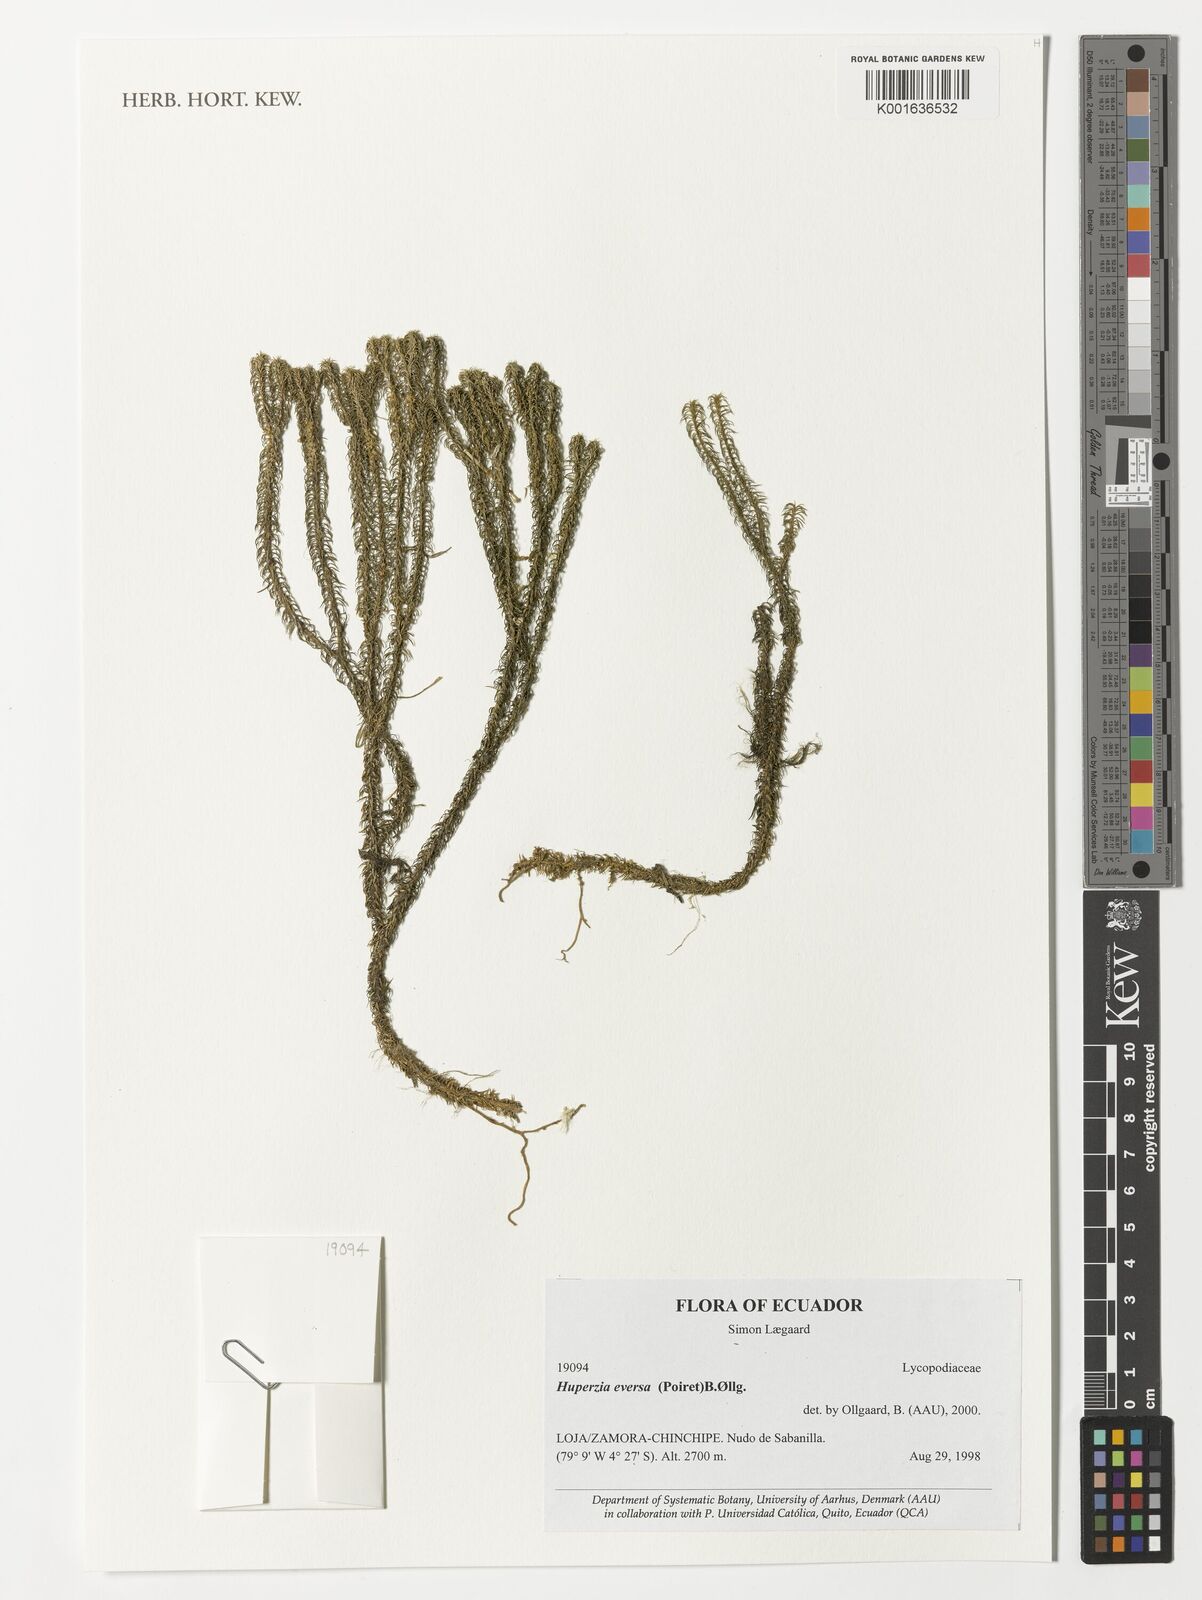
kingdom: Plantae
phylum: Tracheophyta
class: Lycopodiopsida
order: Lycopodiales
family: Lycopodiaceae
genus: Phlegmariurus
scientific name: Phlegmariurus eversus
